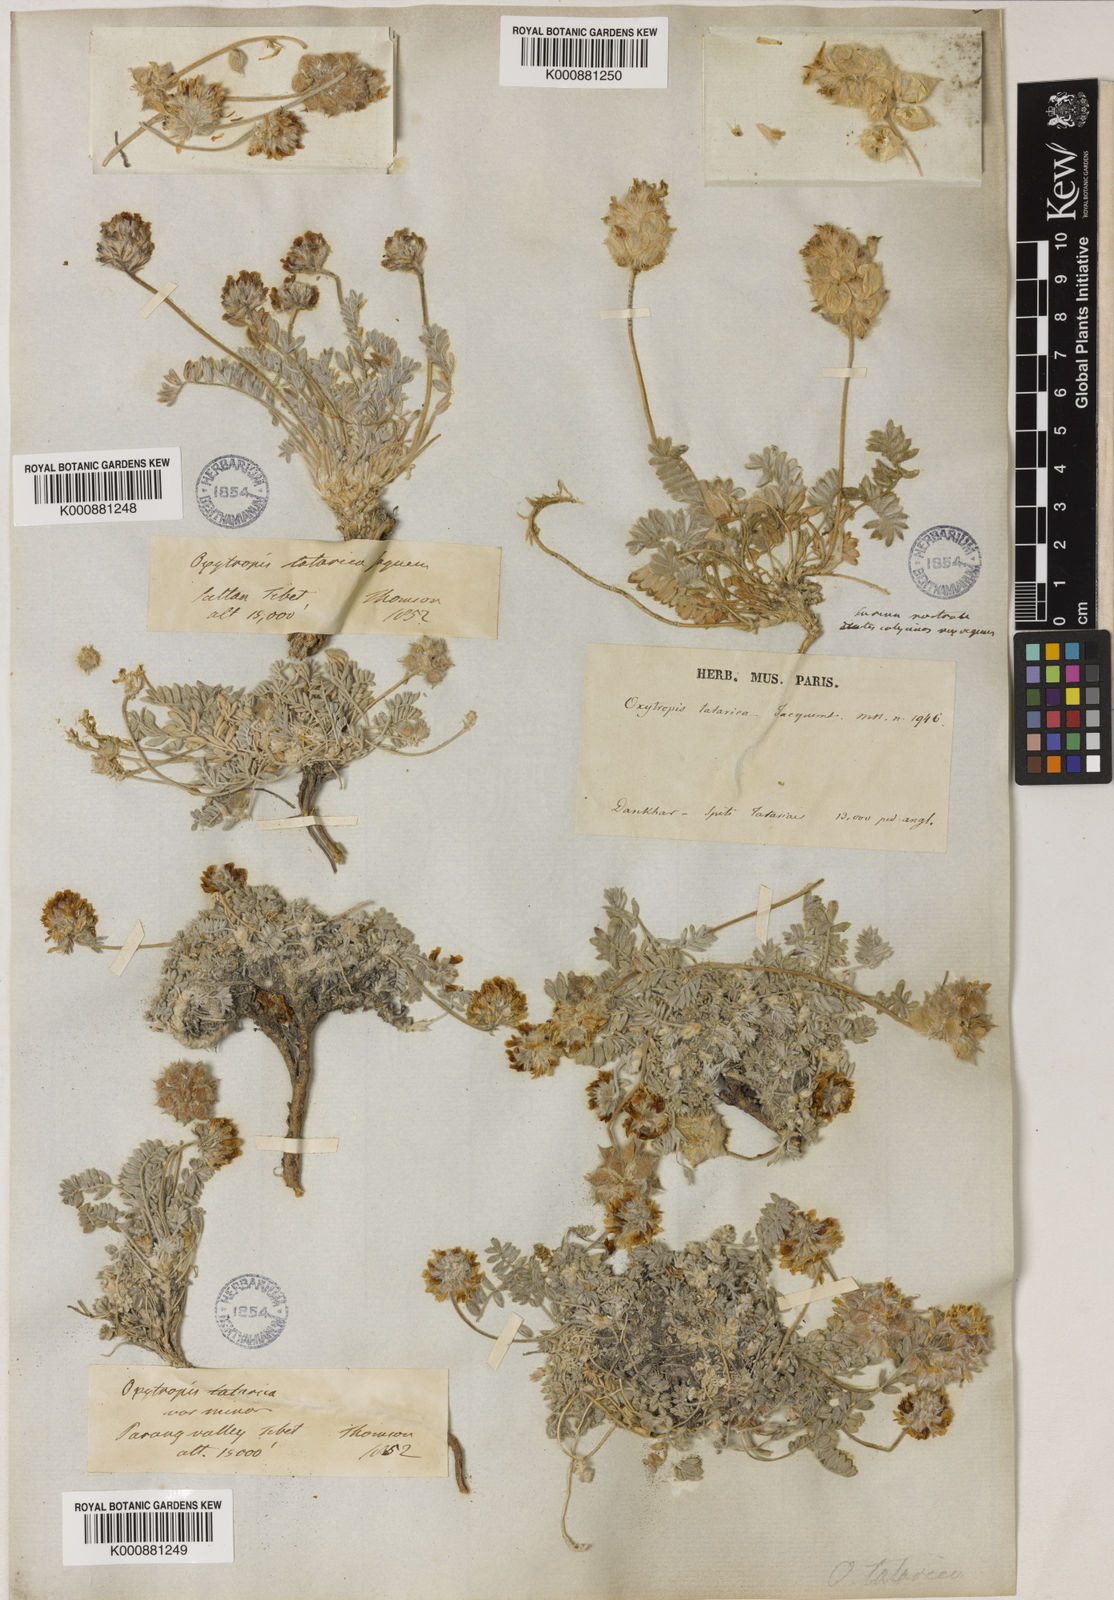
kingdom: Plantae
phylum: Tracheophyta
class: Magnoliopsida
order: Fabales
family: Fabaceae
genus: Oxytropis
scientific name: Oxytropis
